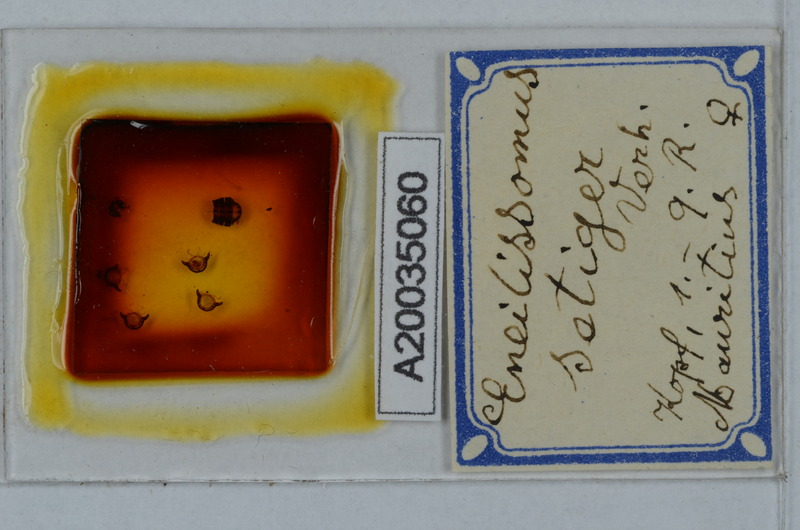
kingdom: Animalia
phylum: Arthropoda
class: Diplopoda
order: Polydesmida
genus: Eneillissomus
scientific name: Eneillissomus setiger
